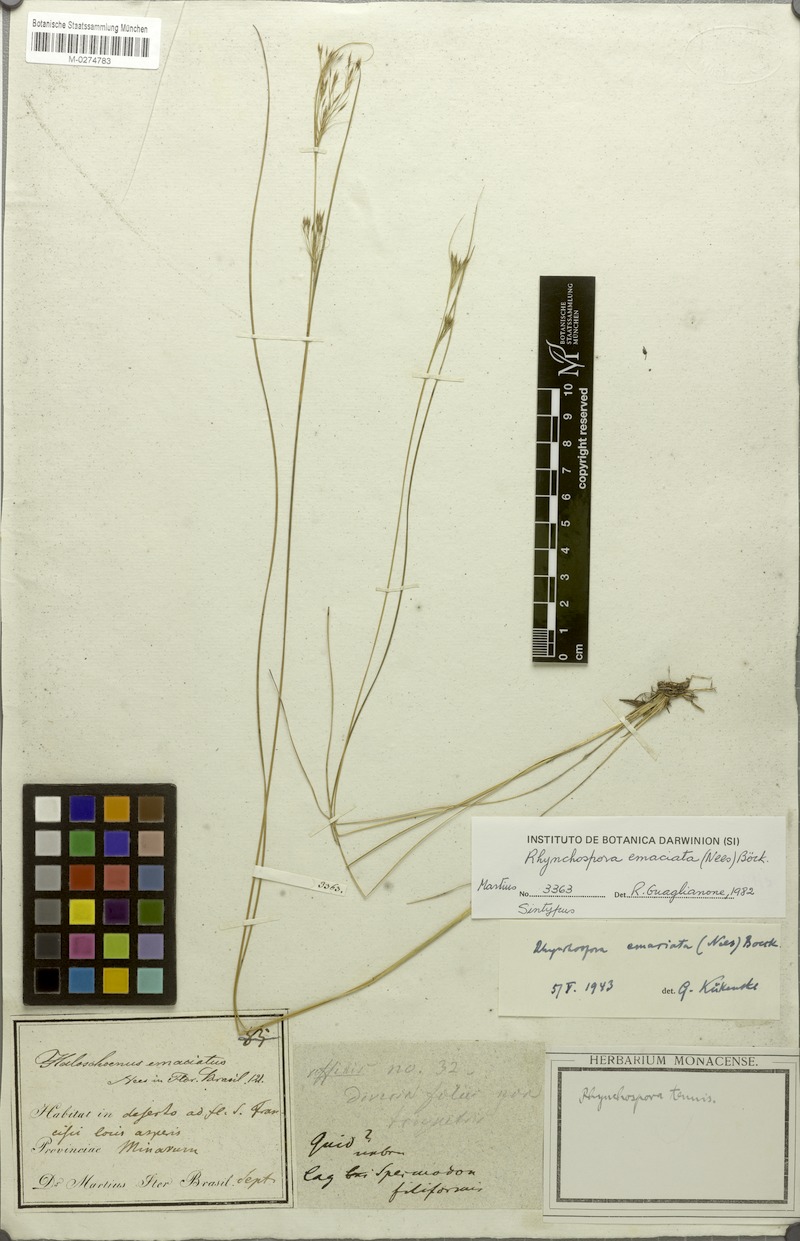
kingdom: Plantae
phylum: Tracheophyta
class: Liliopsida
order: Poales
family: Cyperaceae
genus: Rhynchospora
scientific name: Rhynchospora emaciata
